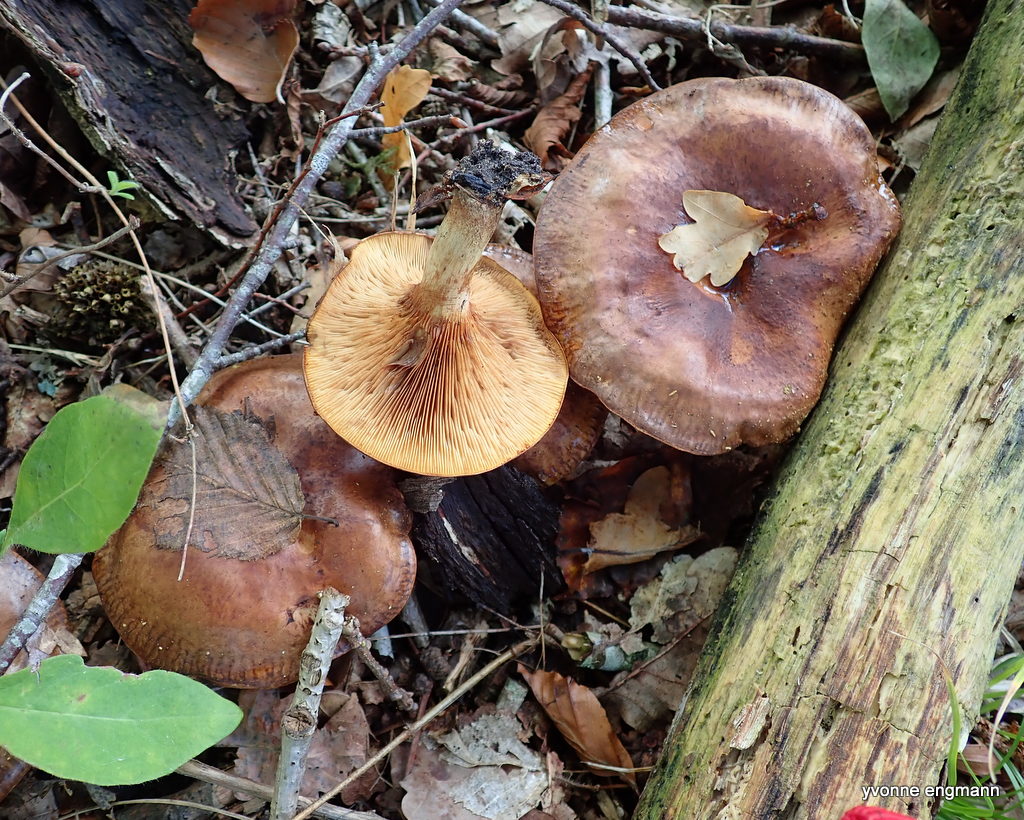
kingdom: Fungi
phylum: Basidiomycota
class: Agaricomycetes
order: Boletales
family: Paxillaceae
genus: Paxillus
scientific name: Paxillus involutus
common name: almindelig netbladhat
